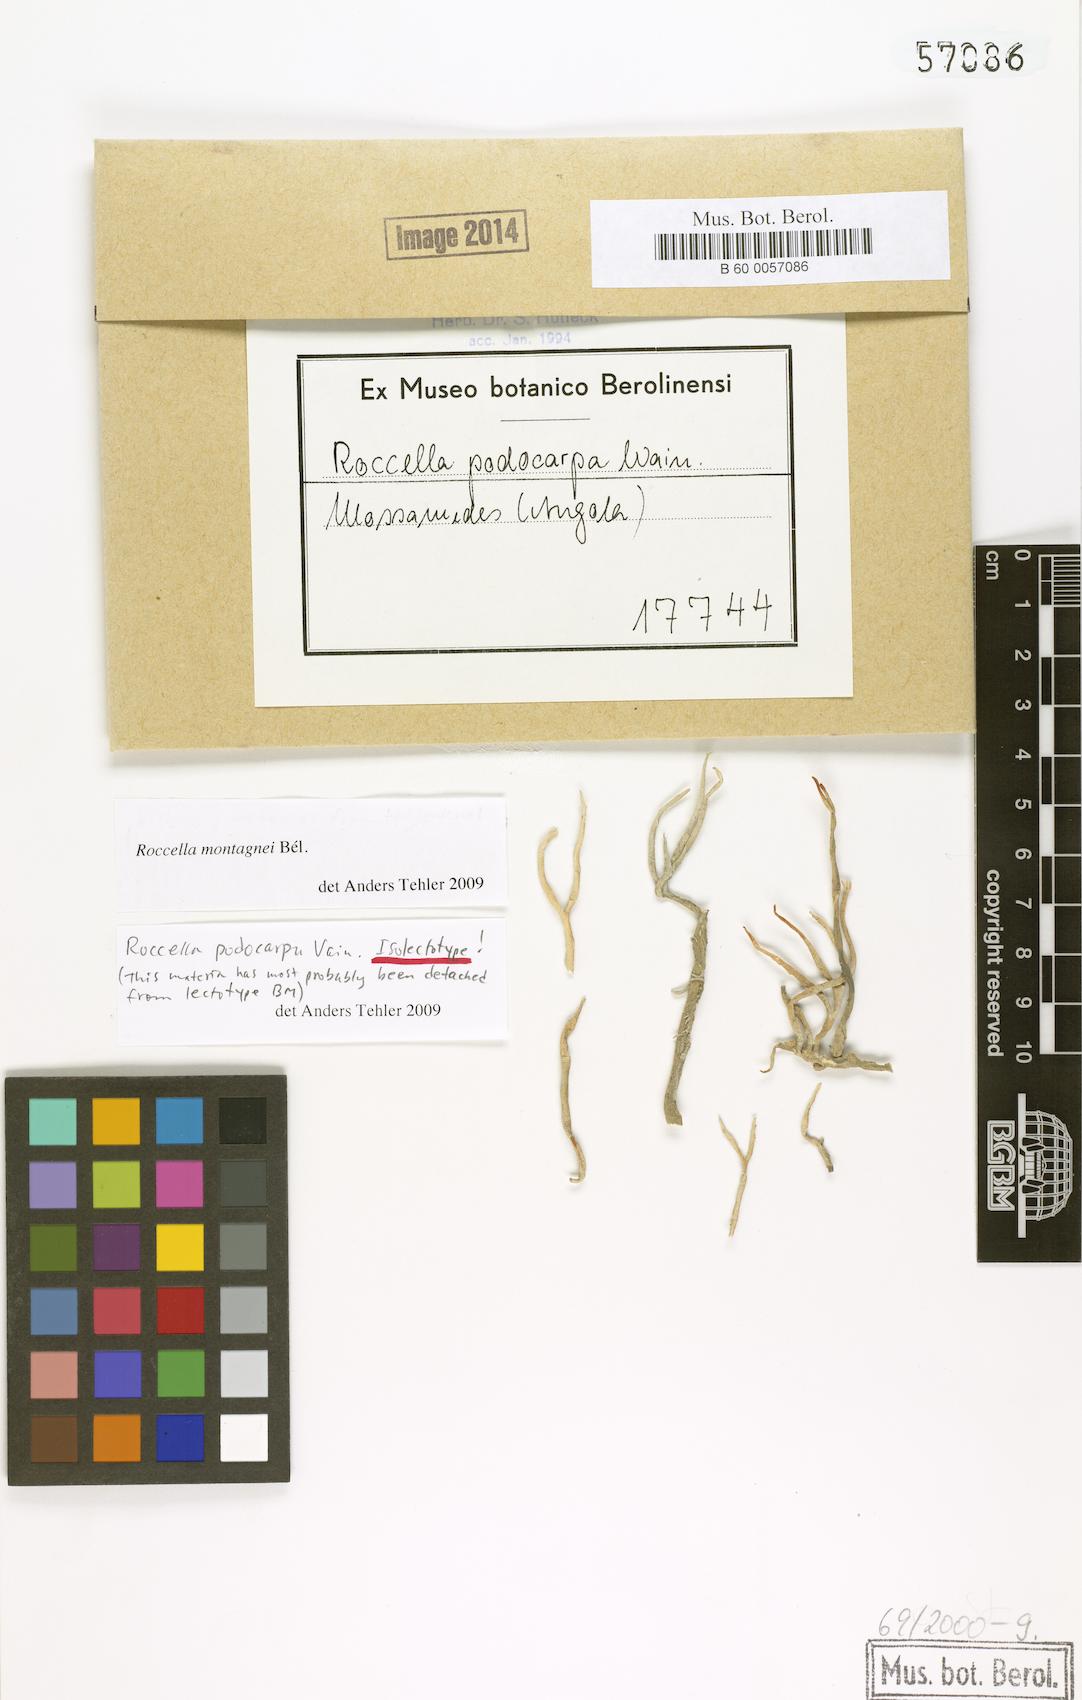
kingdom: Fungi
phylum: Ascomycota
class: Arthoniomycetes
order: Arthoniales
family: Roccellaceae
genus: Roccella
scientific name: Roccella
